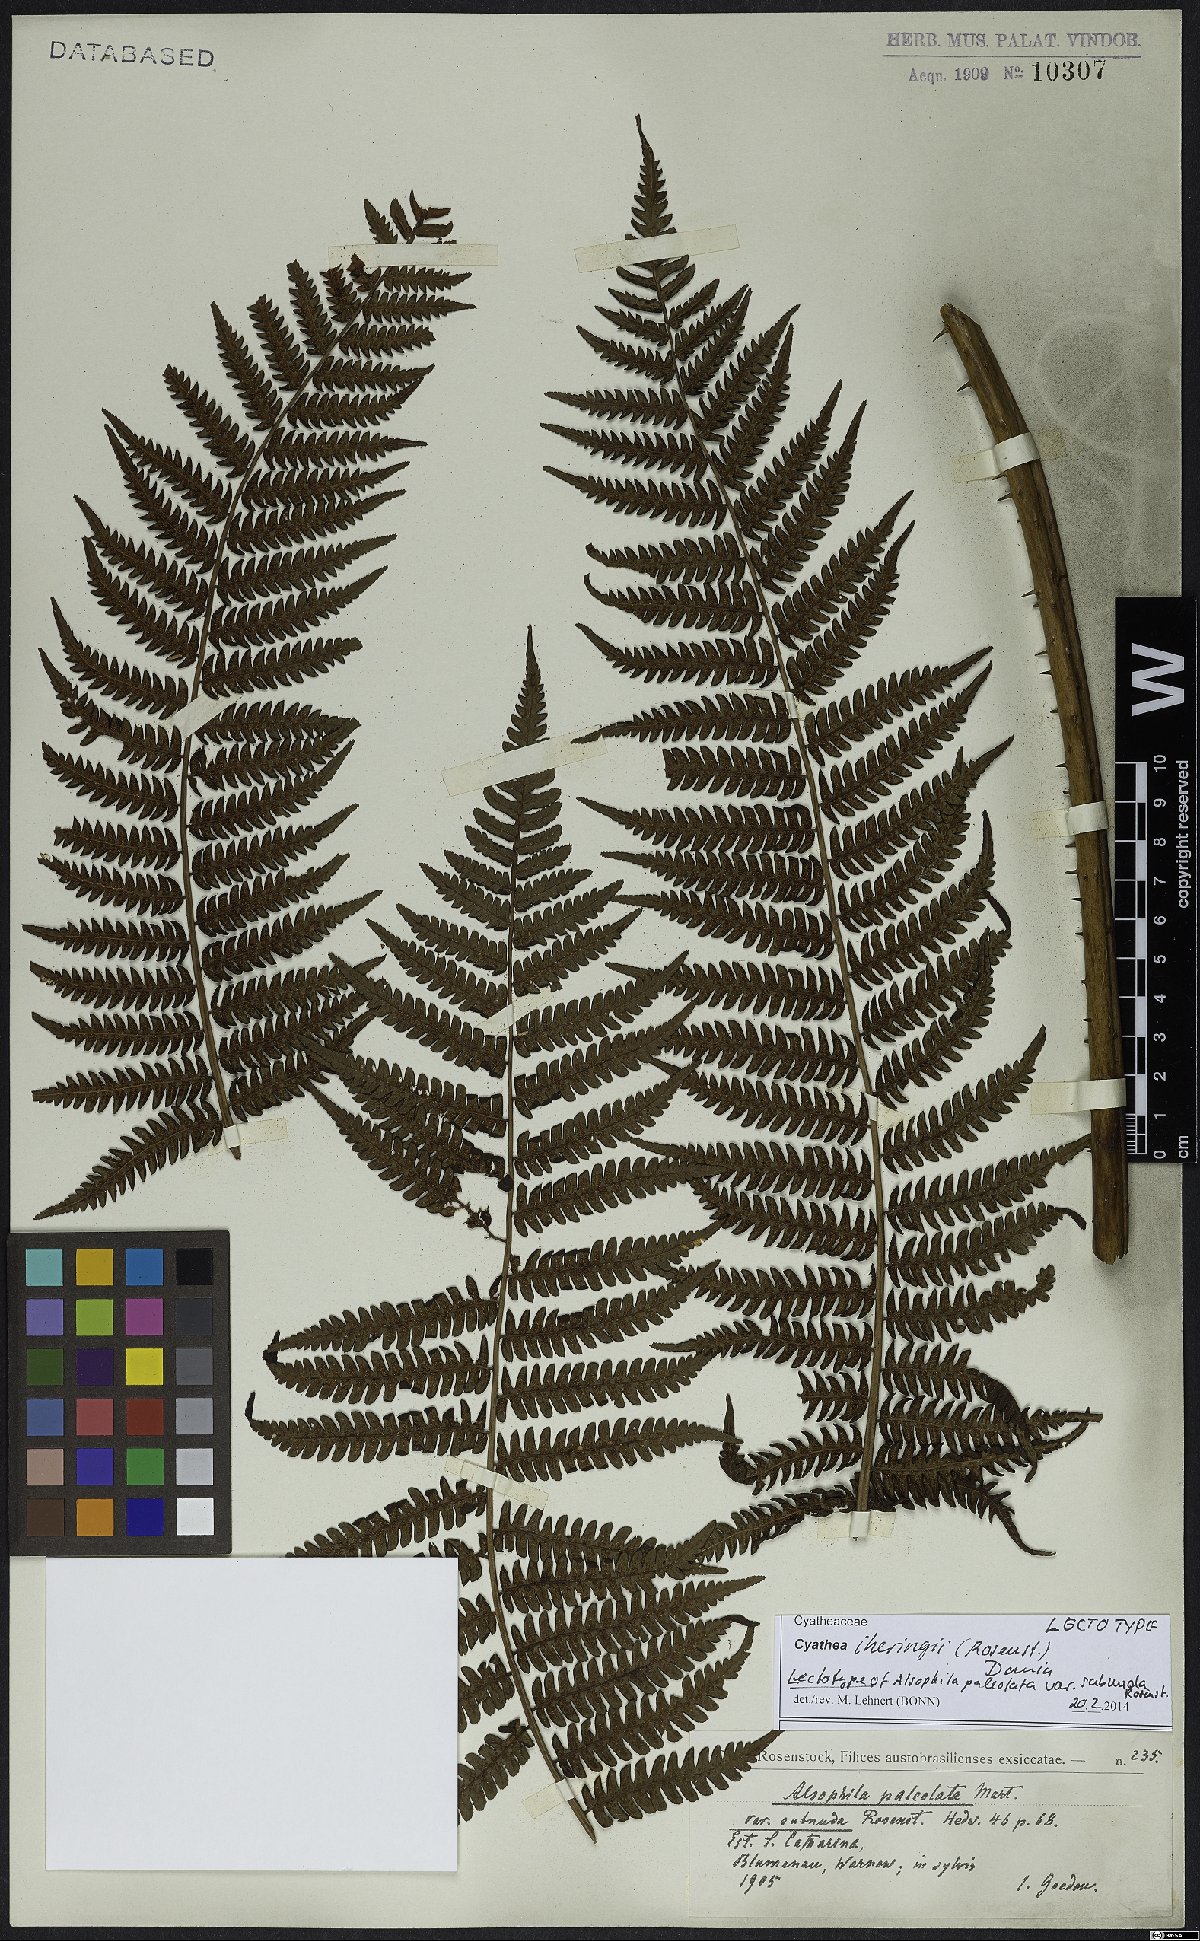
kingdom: Plantae
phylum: Tracheophyta
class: Polypodiopsida
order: Cyatheales
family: Cyatheaceae
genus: Cyathea
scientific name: Cyathea iheringii
